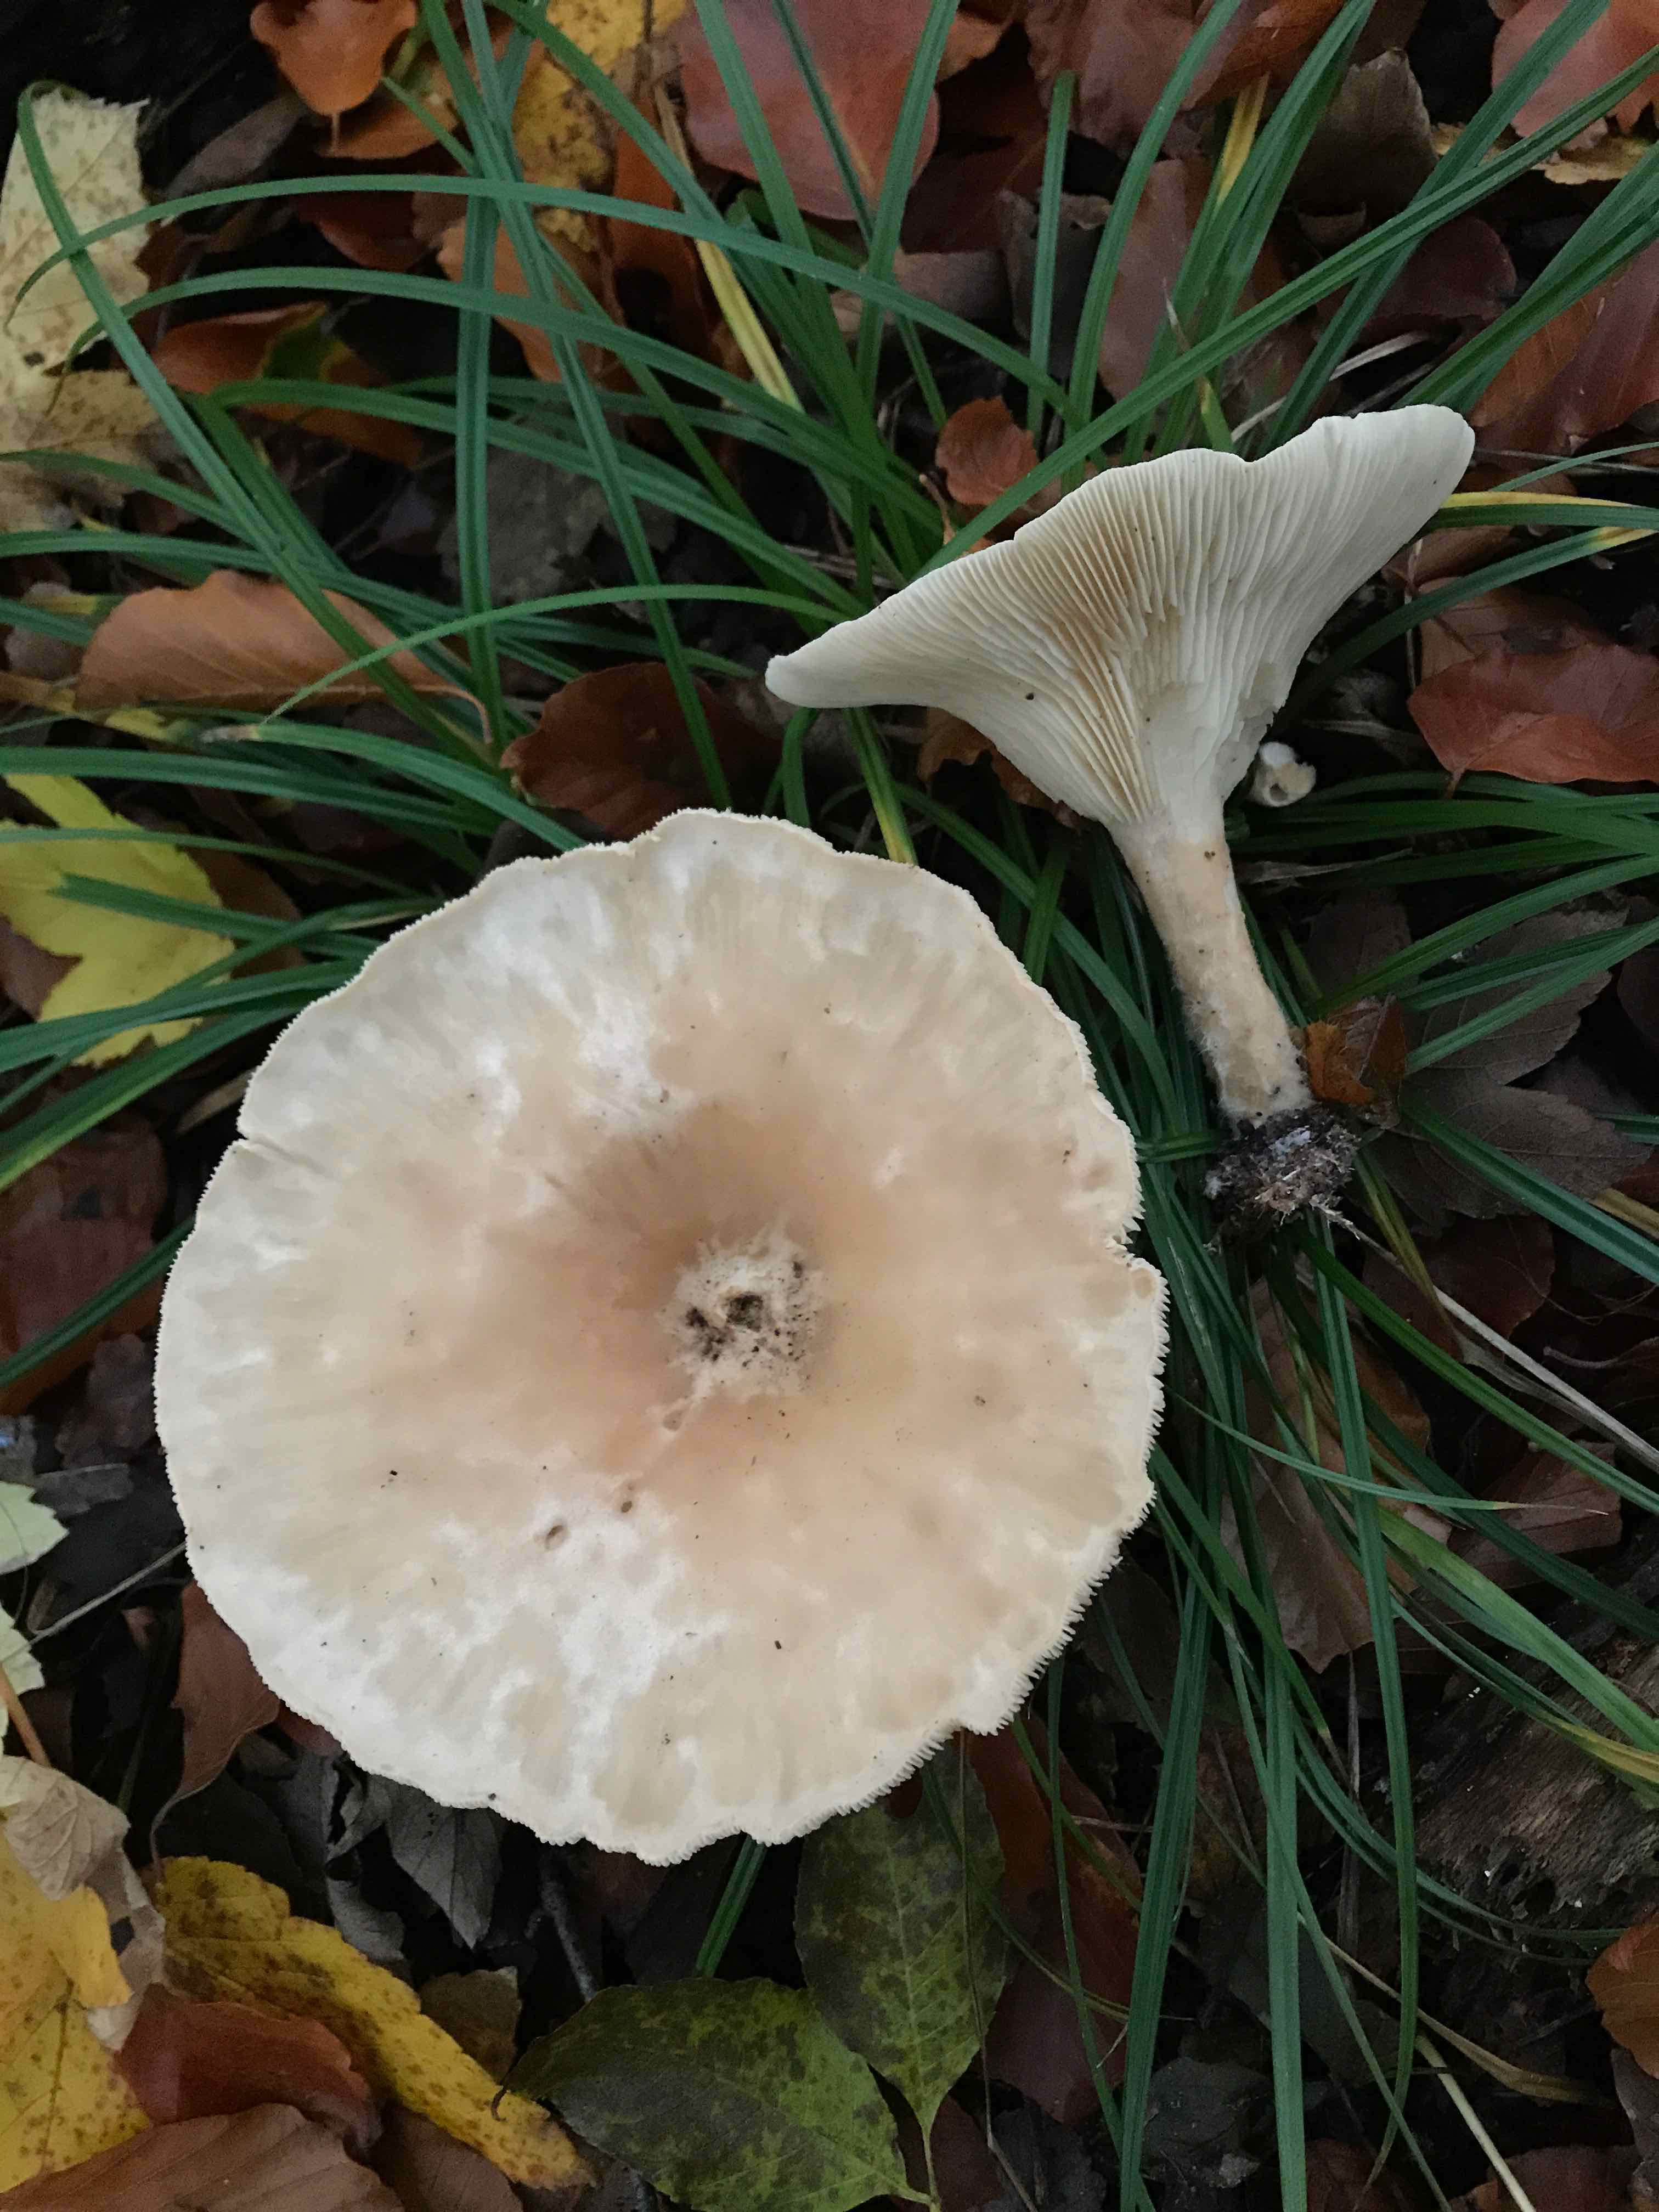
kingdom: Fungi
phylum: Basidiomycota
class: Agaricomycetes
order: Agaricales
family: Tricholomataceae
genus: Infundibulicybe
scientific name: Infundibulicybe geotropa
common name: stor tragthat
